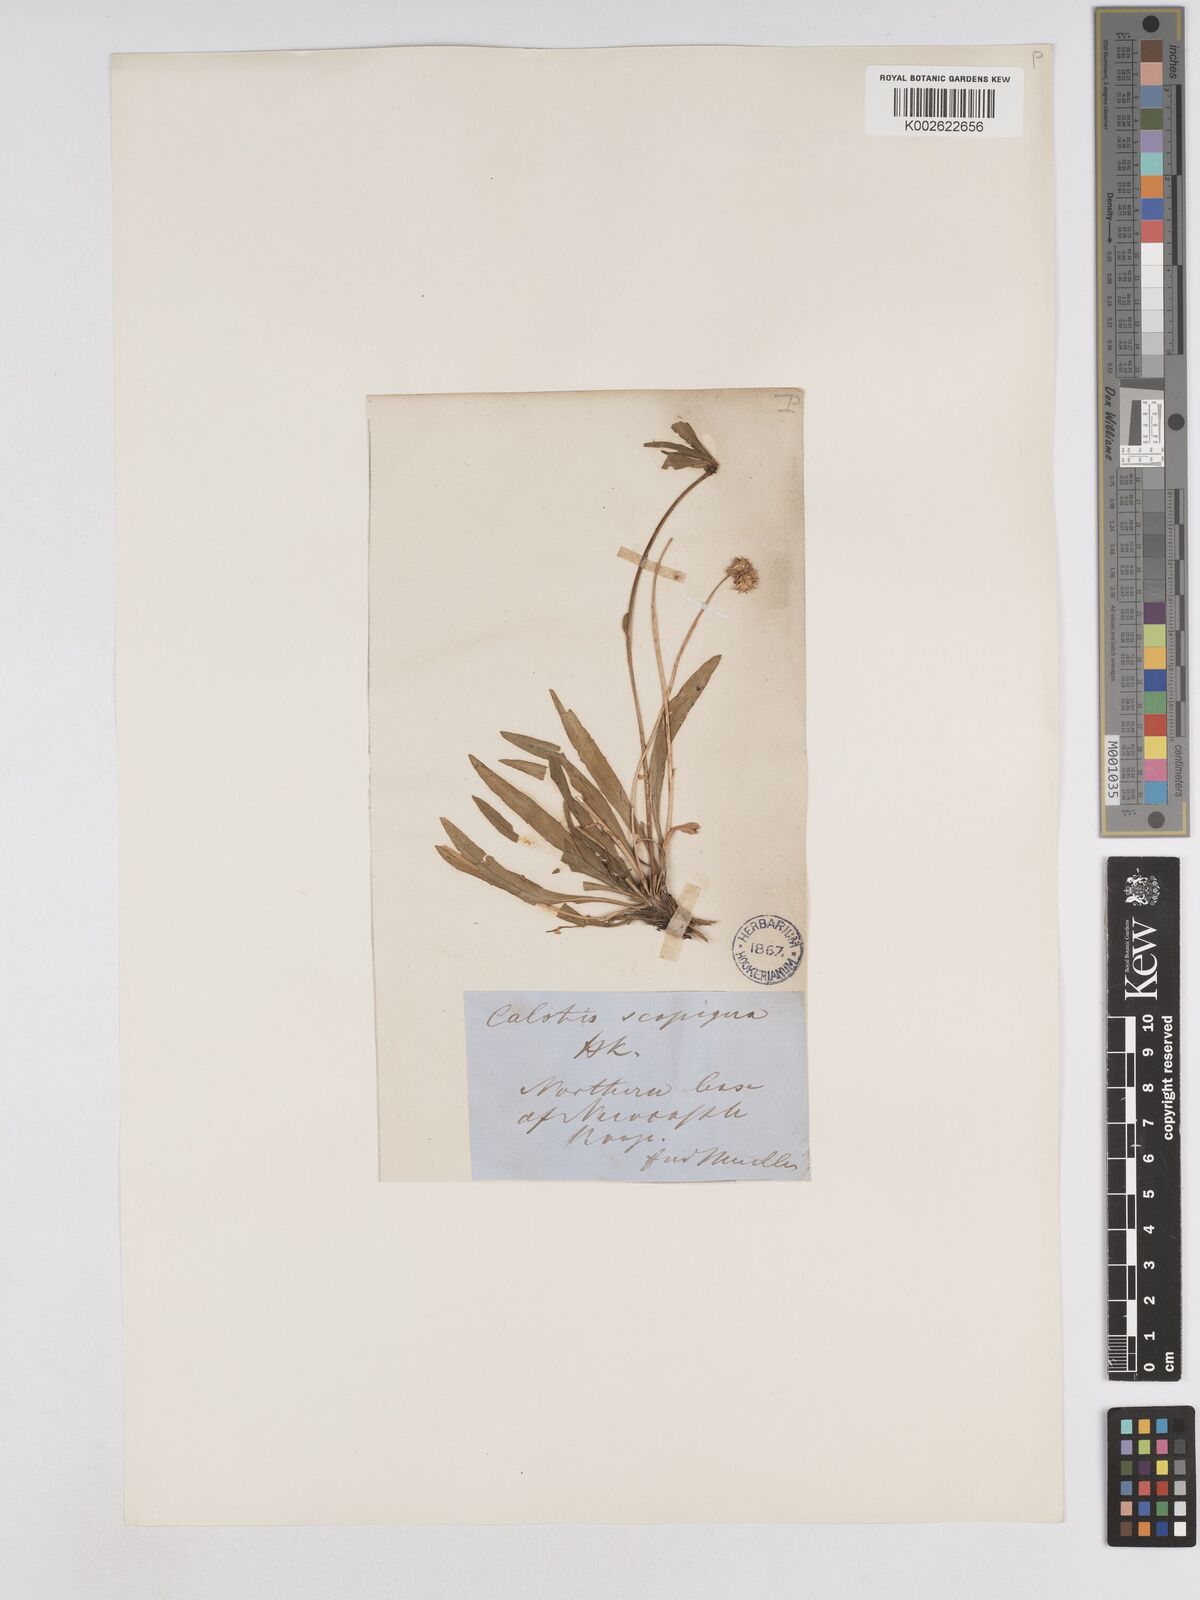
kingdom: Plantae
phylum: Tracheophyta
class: Magnoliopsida
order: Asterales
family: Asteraceae
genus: Calotis
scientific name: Calotis scapigera
